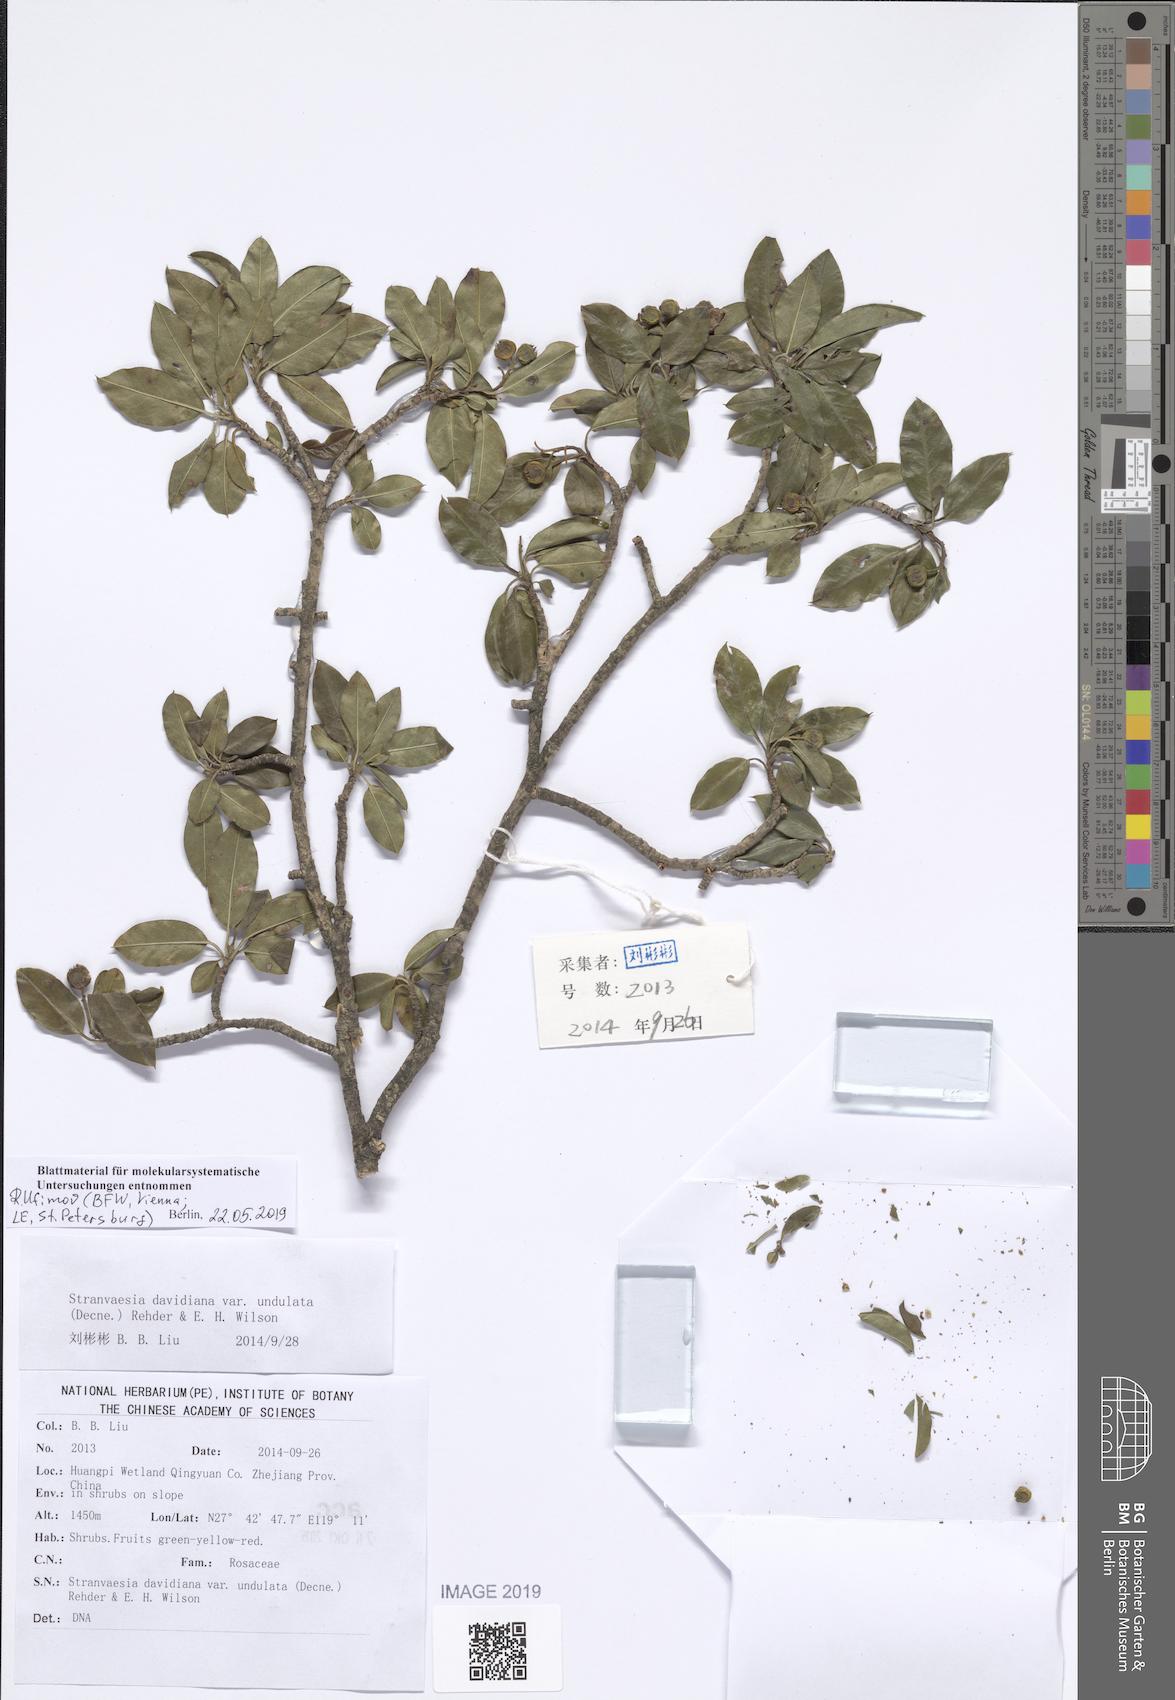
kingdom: Plantae
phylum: Tracheophyta
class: Magnoliopsida
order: Rosales
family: Rosaceae
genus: Stranvaesia
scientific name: Stranvaesia undulata
